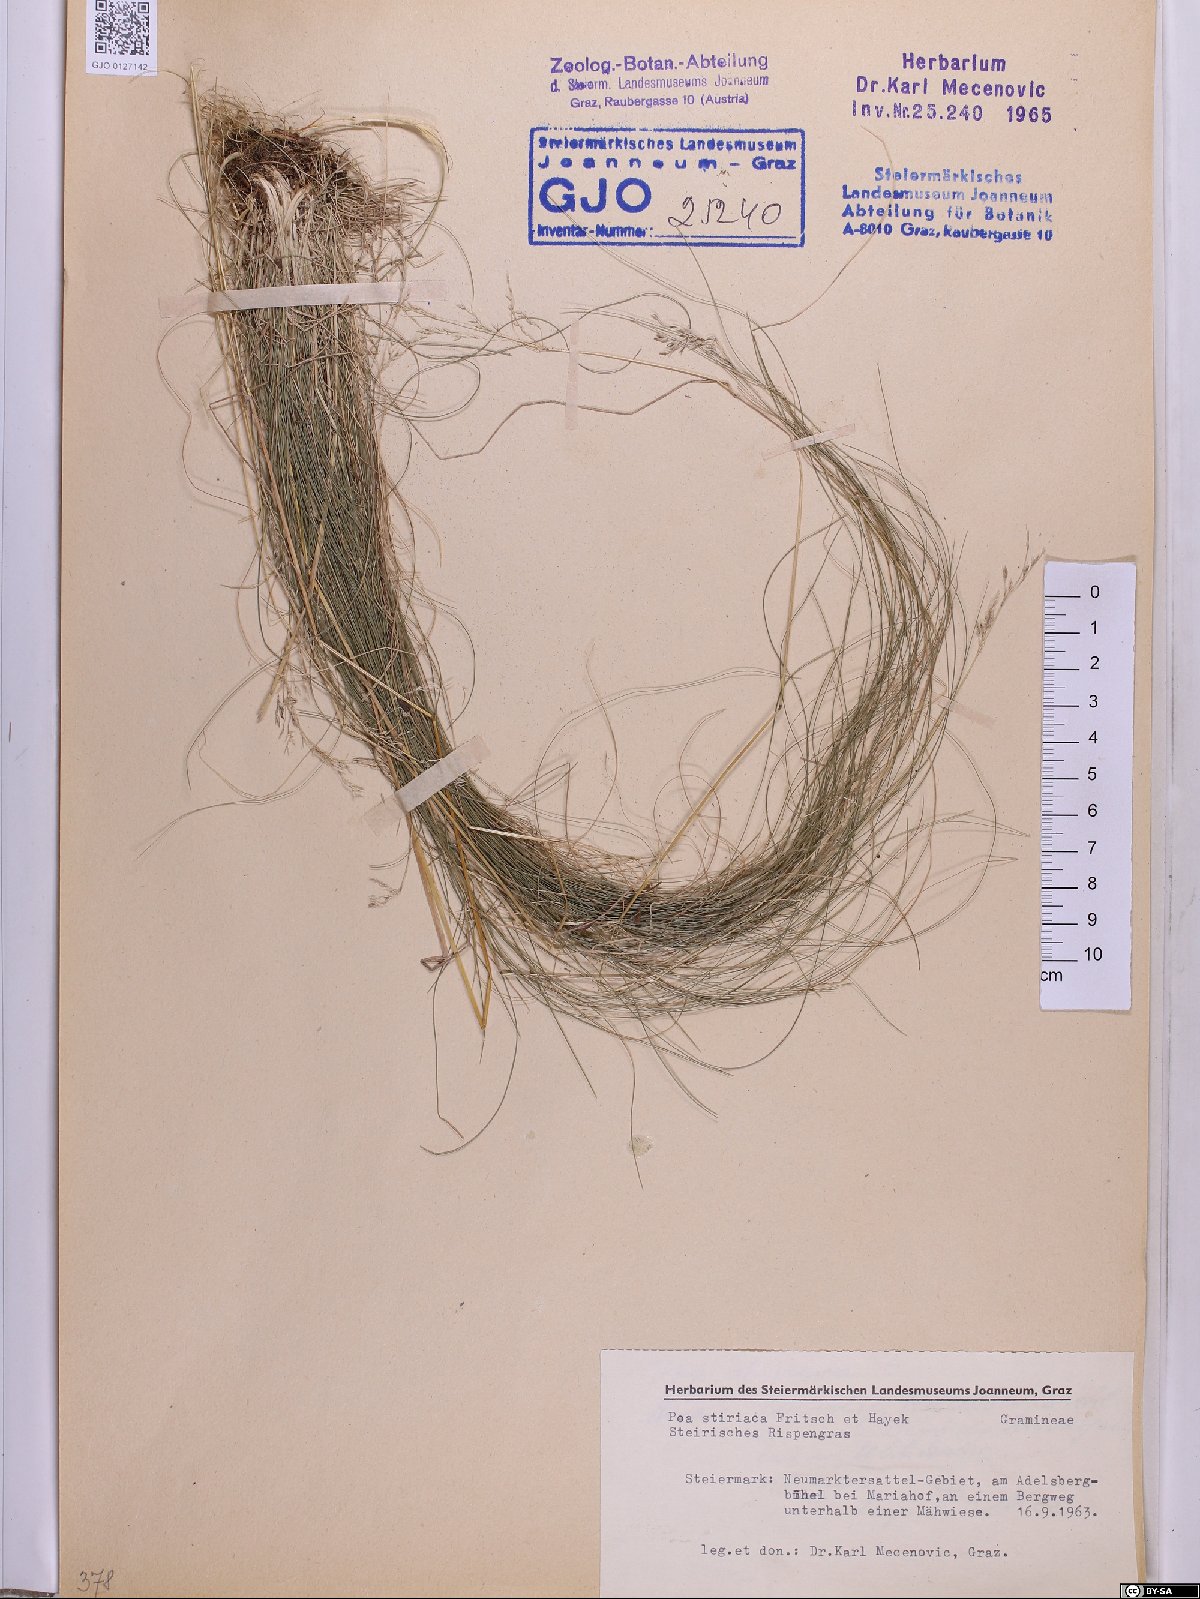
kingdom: Plantae
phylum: Tracheophyta
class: Liliopsida
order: Poales
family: Poaceae
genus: Poa
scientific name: Poa stiriaca
